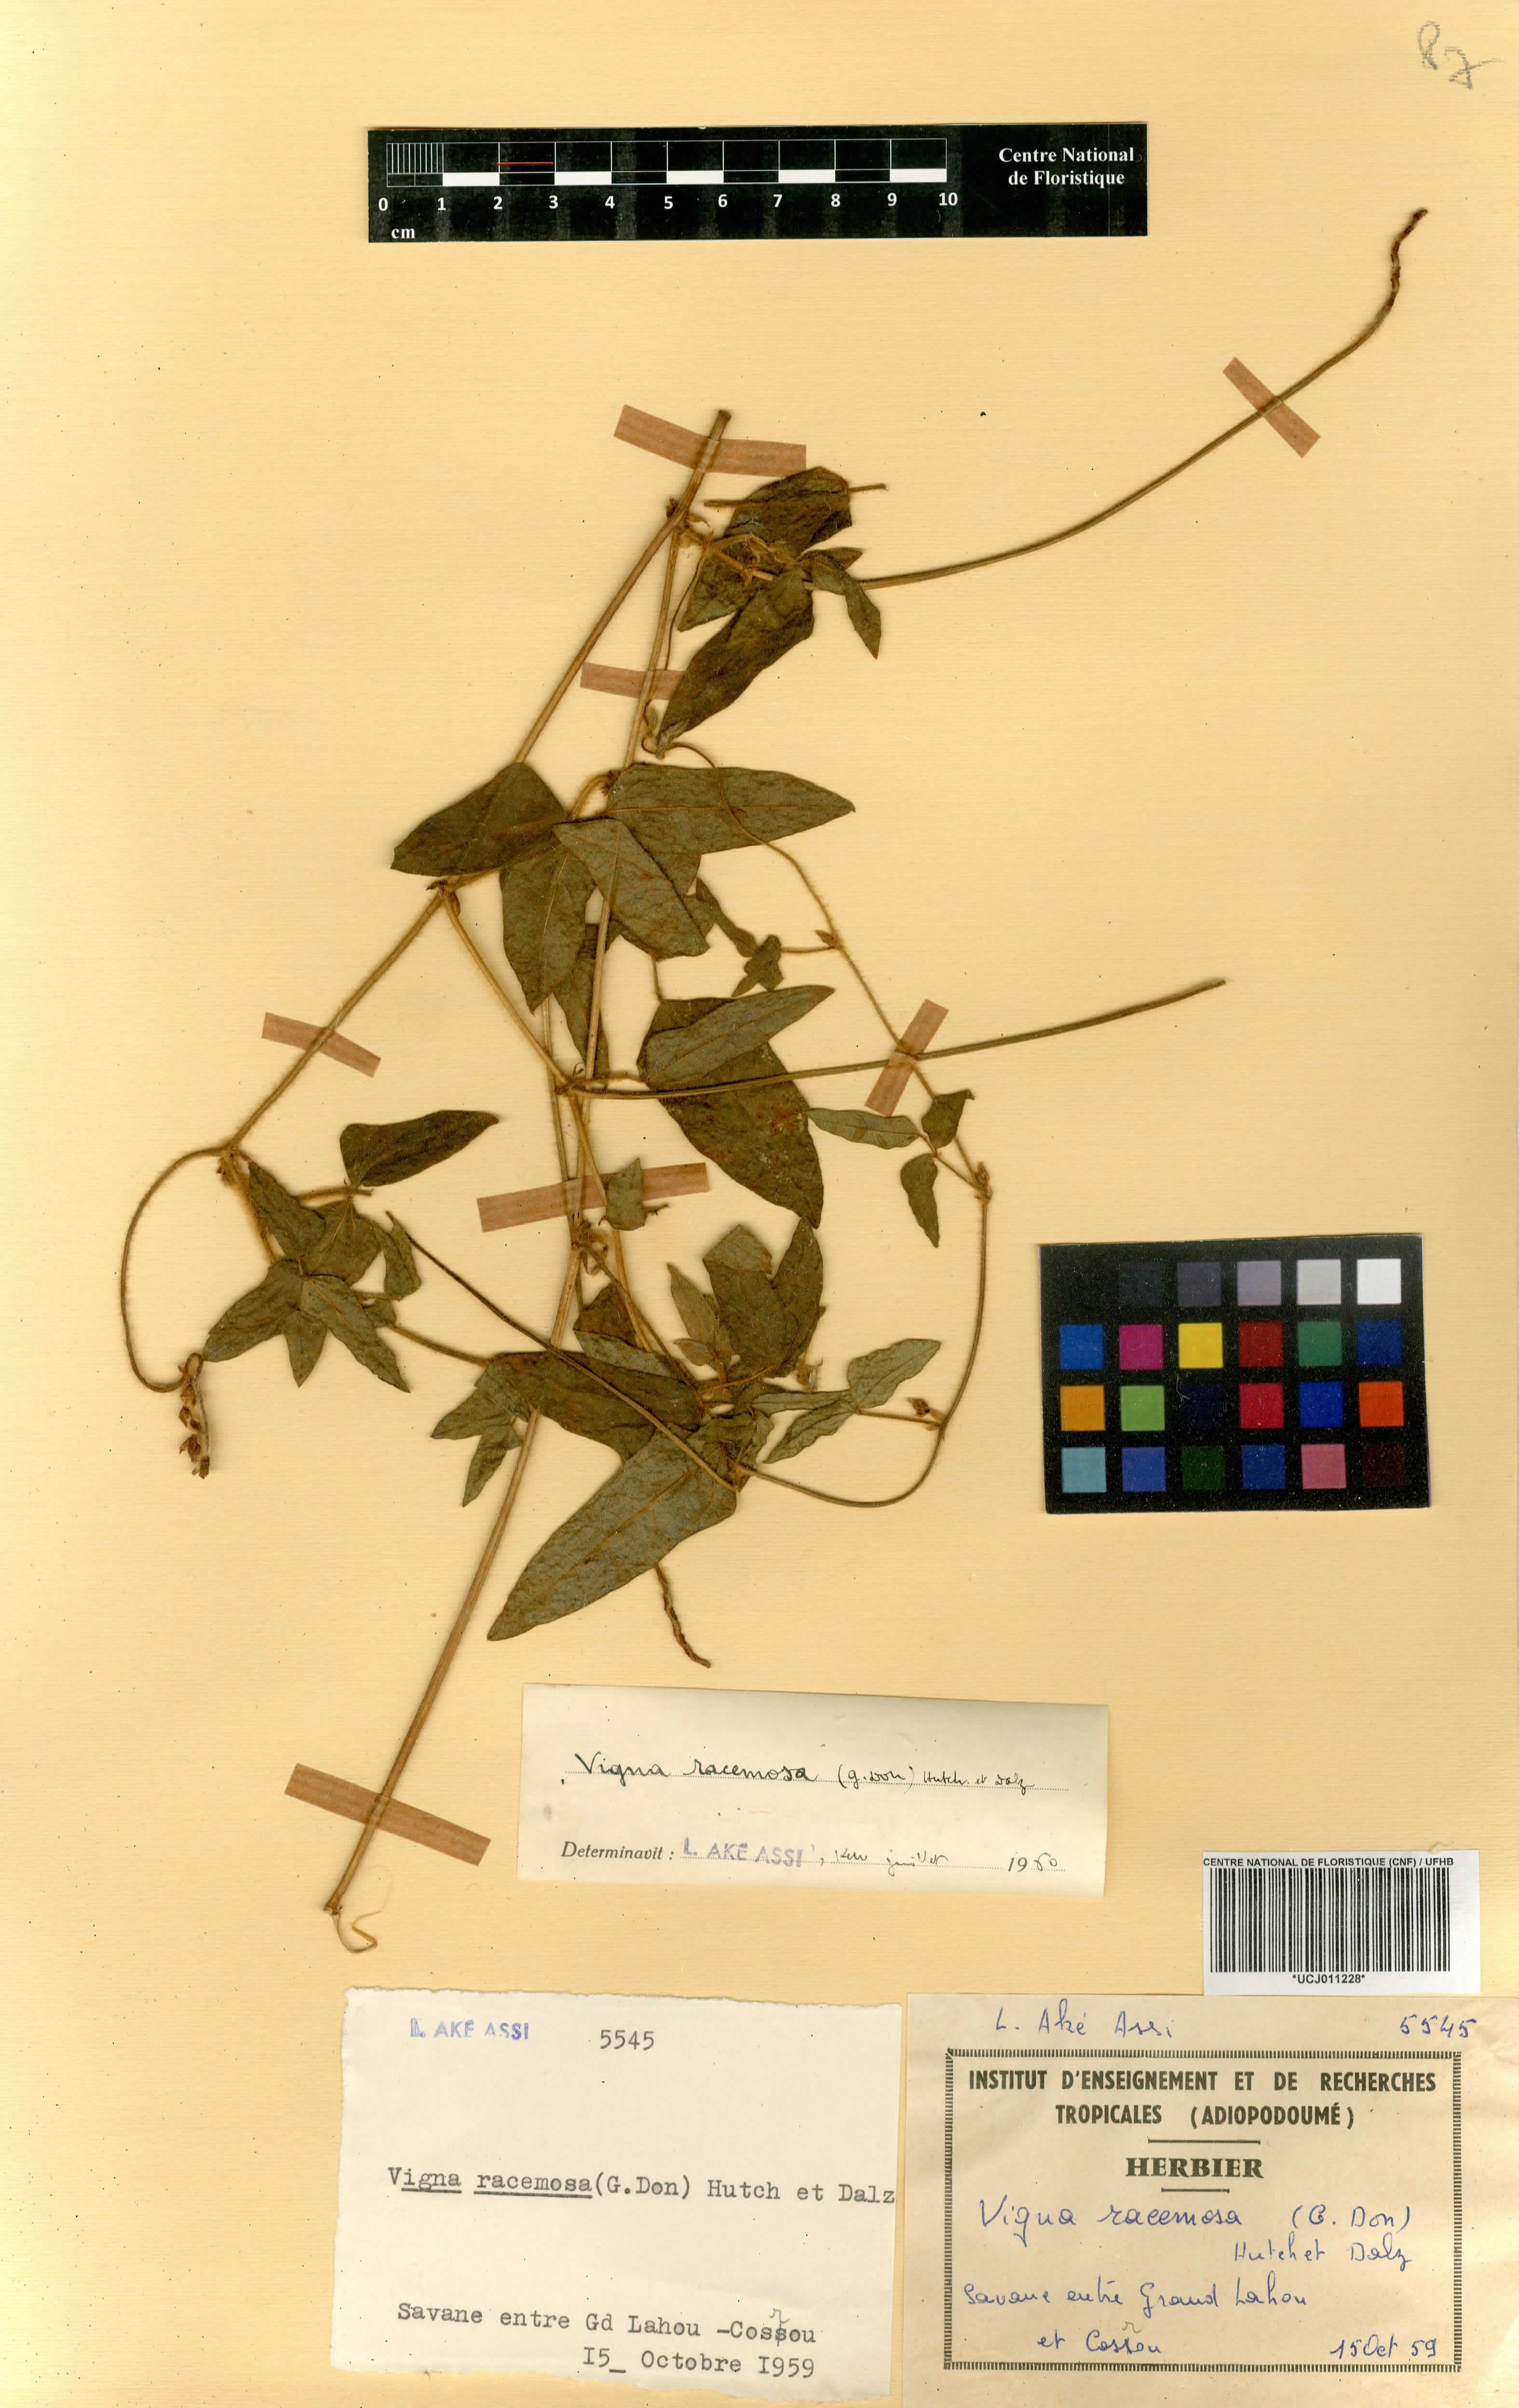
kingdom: Plantae
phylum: Tracheophyta
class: Magnoliopsida
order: Fabales
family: Fabaceae
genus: Vigna
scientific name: Vigna racemosa
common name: Beans not eaten
